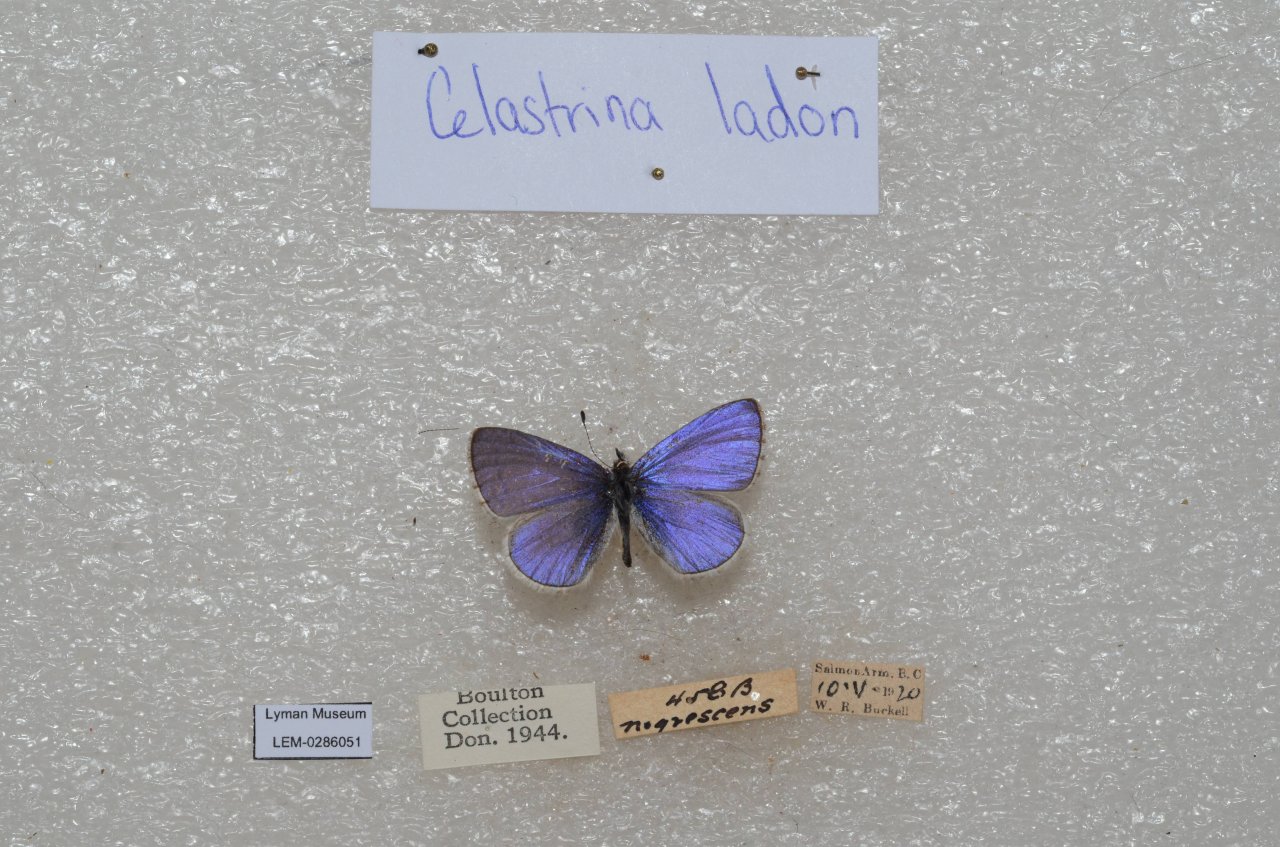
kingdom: Animalia
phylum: Arthropoda
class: Insecta
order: Lepidoptera
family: Lycaenidae
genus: Celastrina
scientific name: Celastrina
